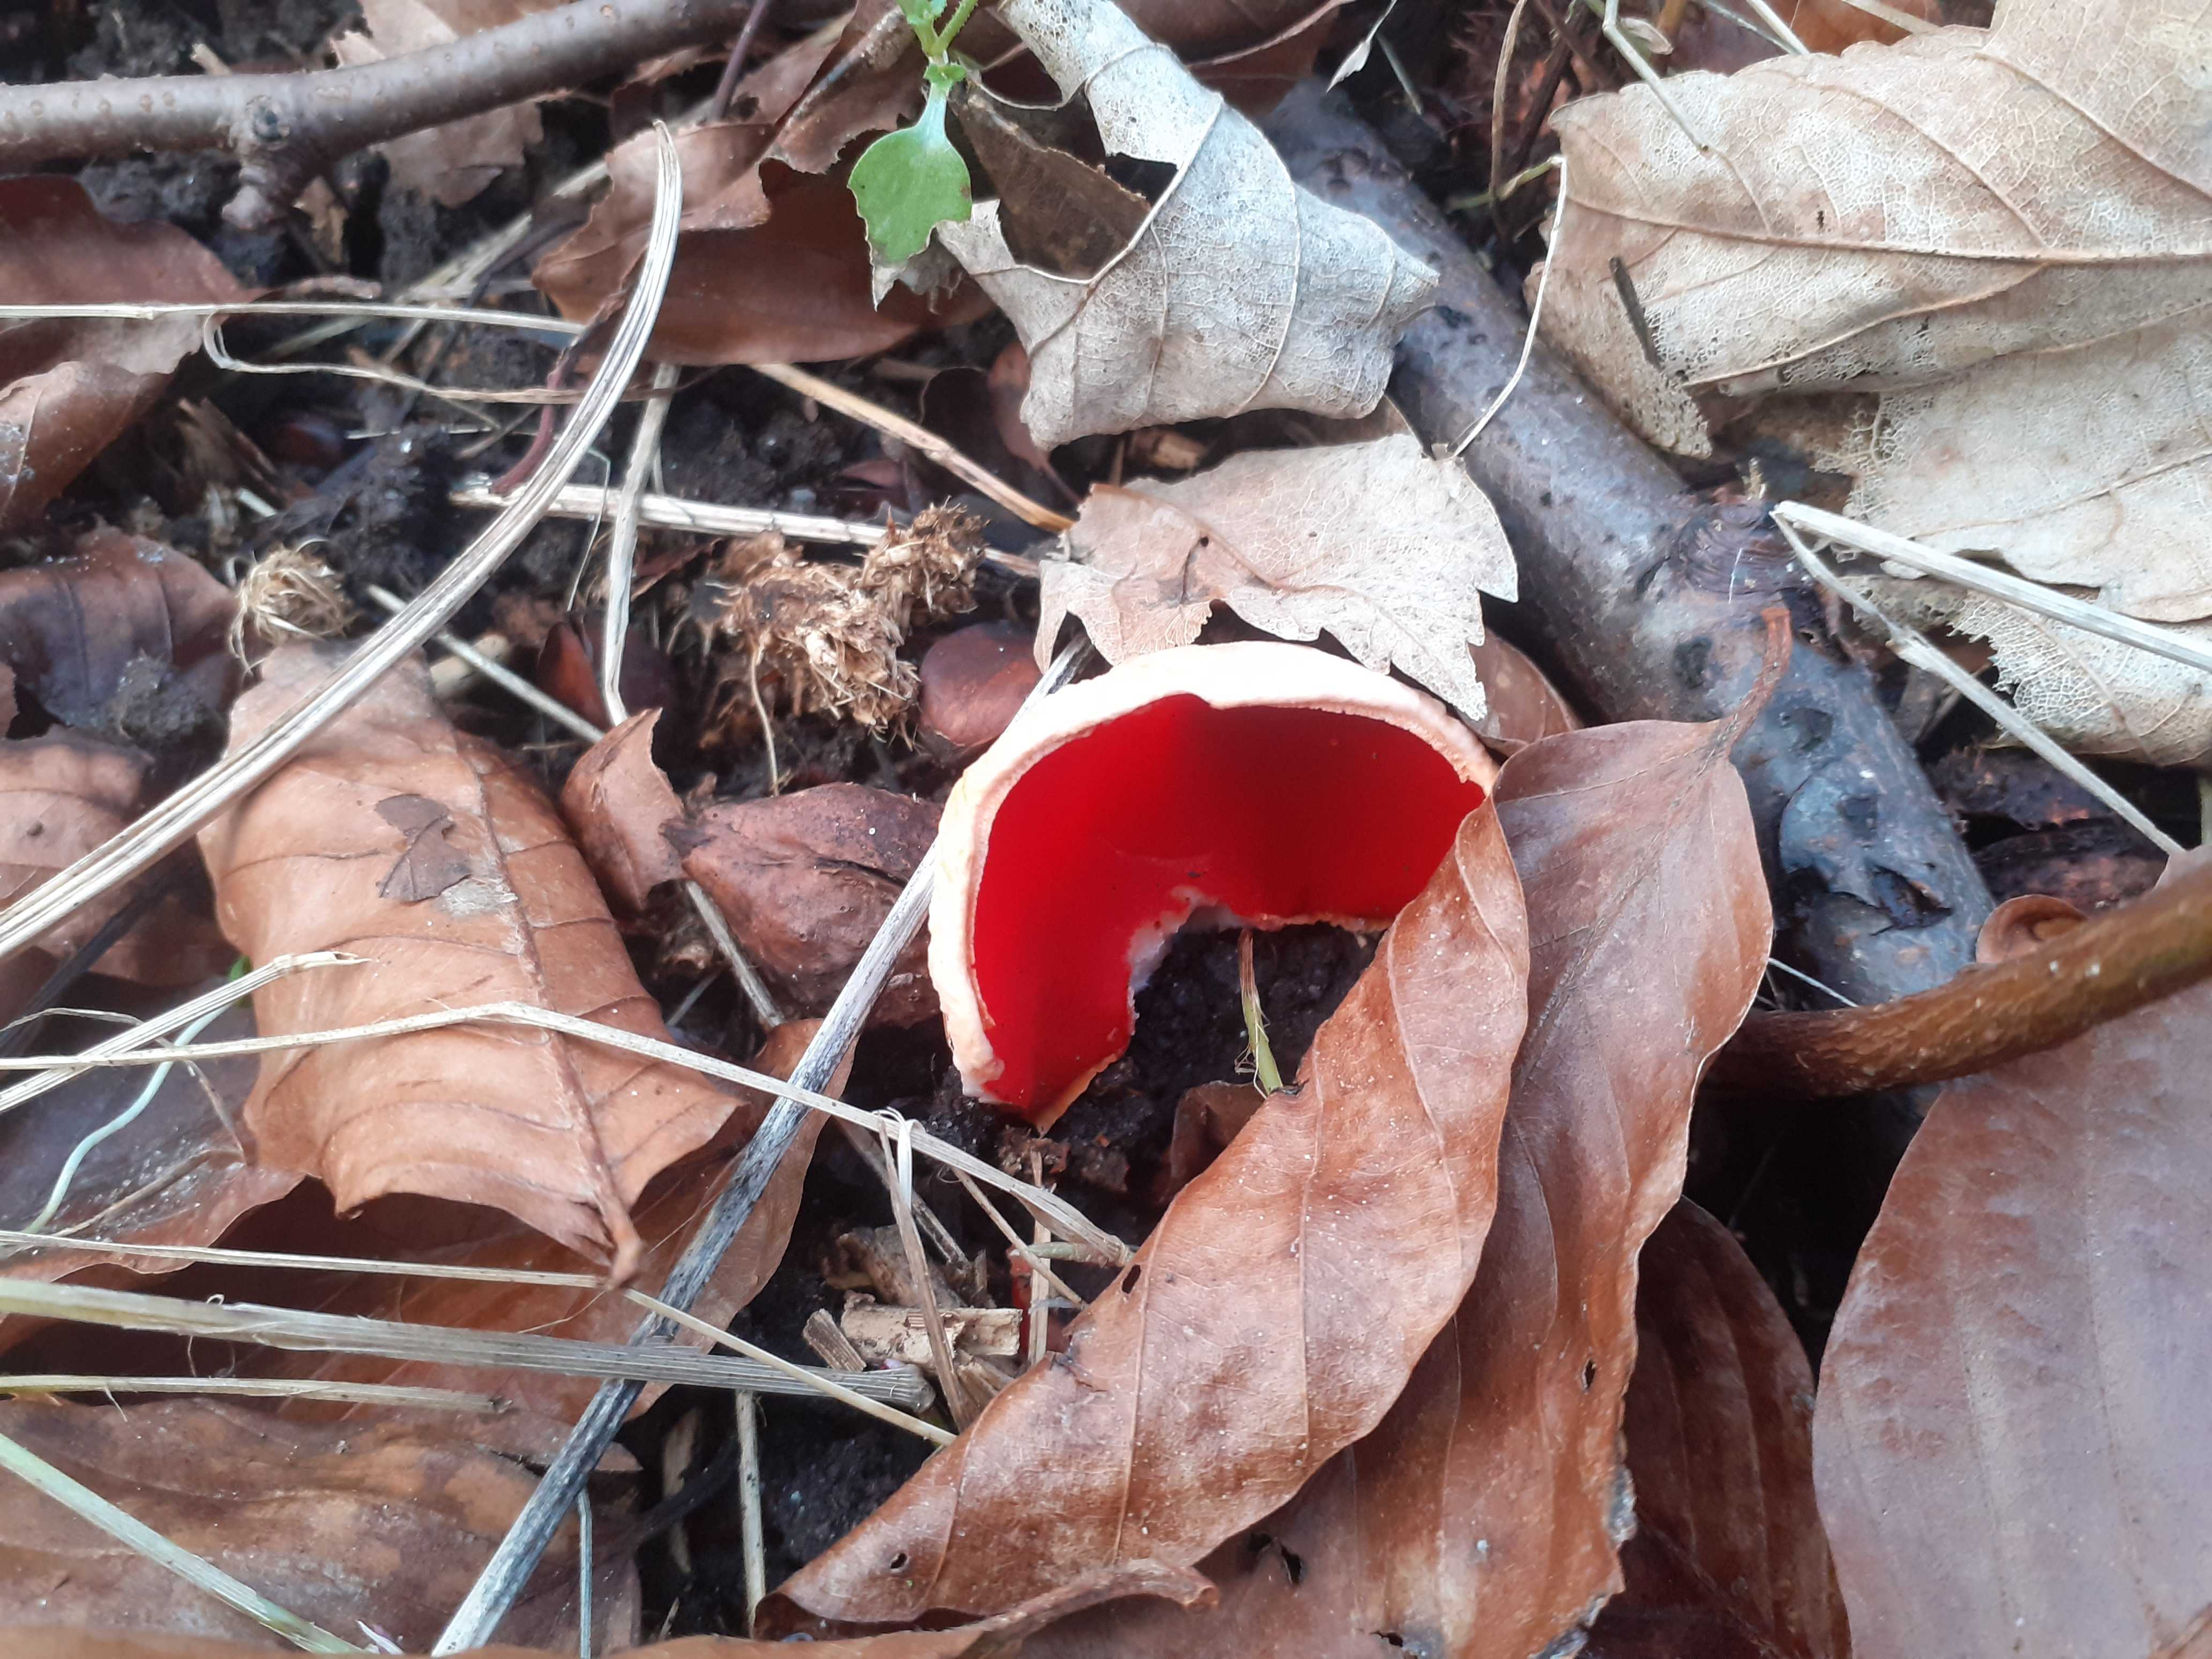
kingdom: Fungi
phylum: Ascomycota
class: Pezizomycetes
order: Pezizales
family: Sarcoscyphaceae
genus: Sarcoscypha
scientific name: Sarcoscypha coccinea
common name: skarlagen-pragtbæger
